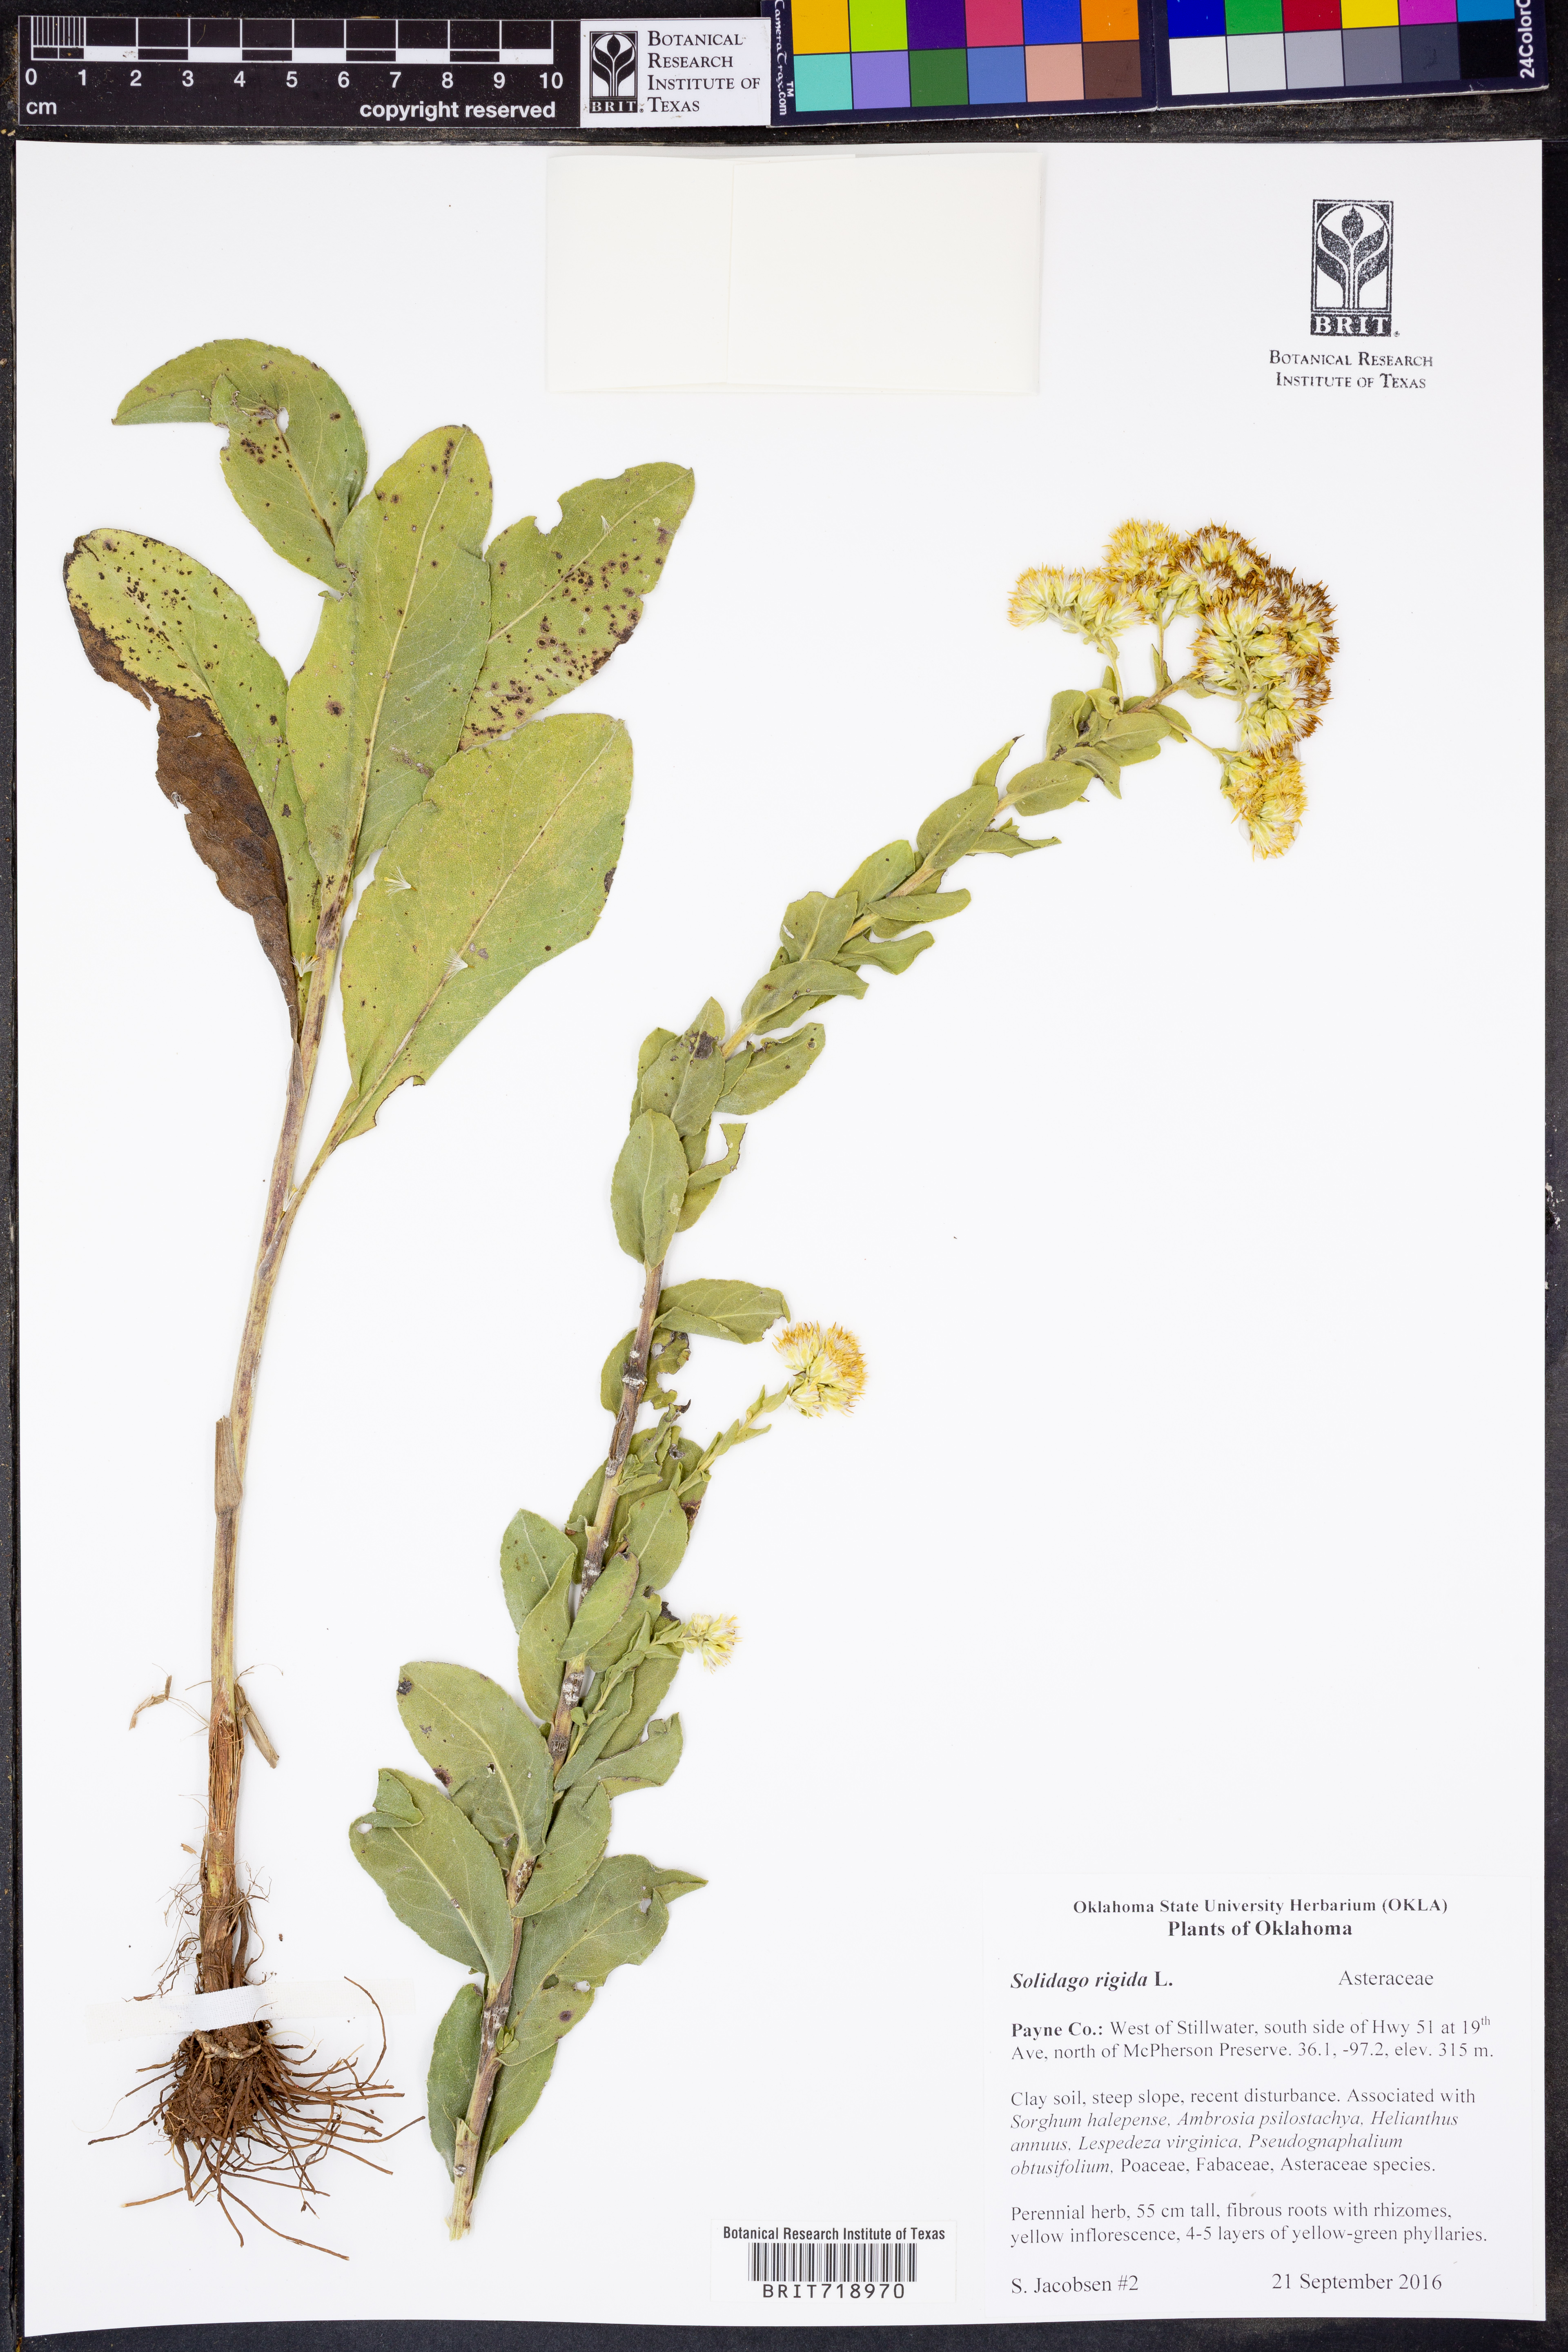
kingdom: Plantae
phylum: Tracheophyta
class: Magnoliopsida
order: Asterales
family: Asteraceae
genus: Solidago
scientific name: Solidago rigida
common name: Rigid goldenrod
